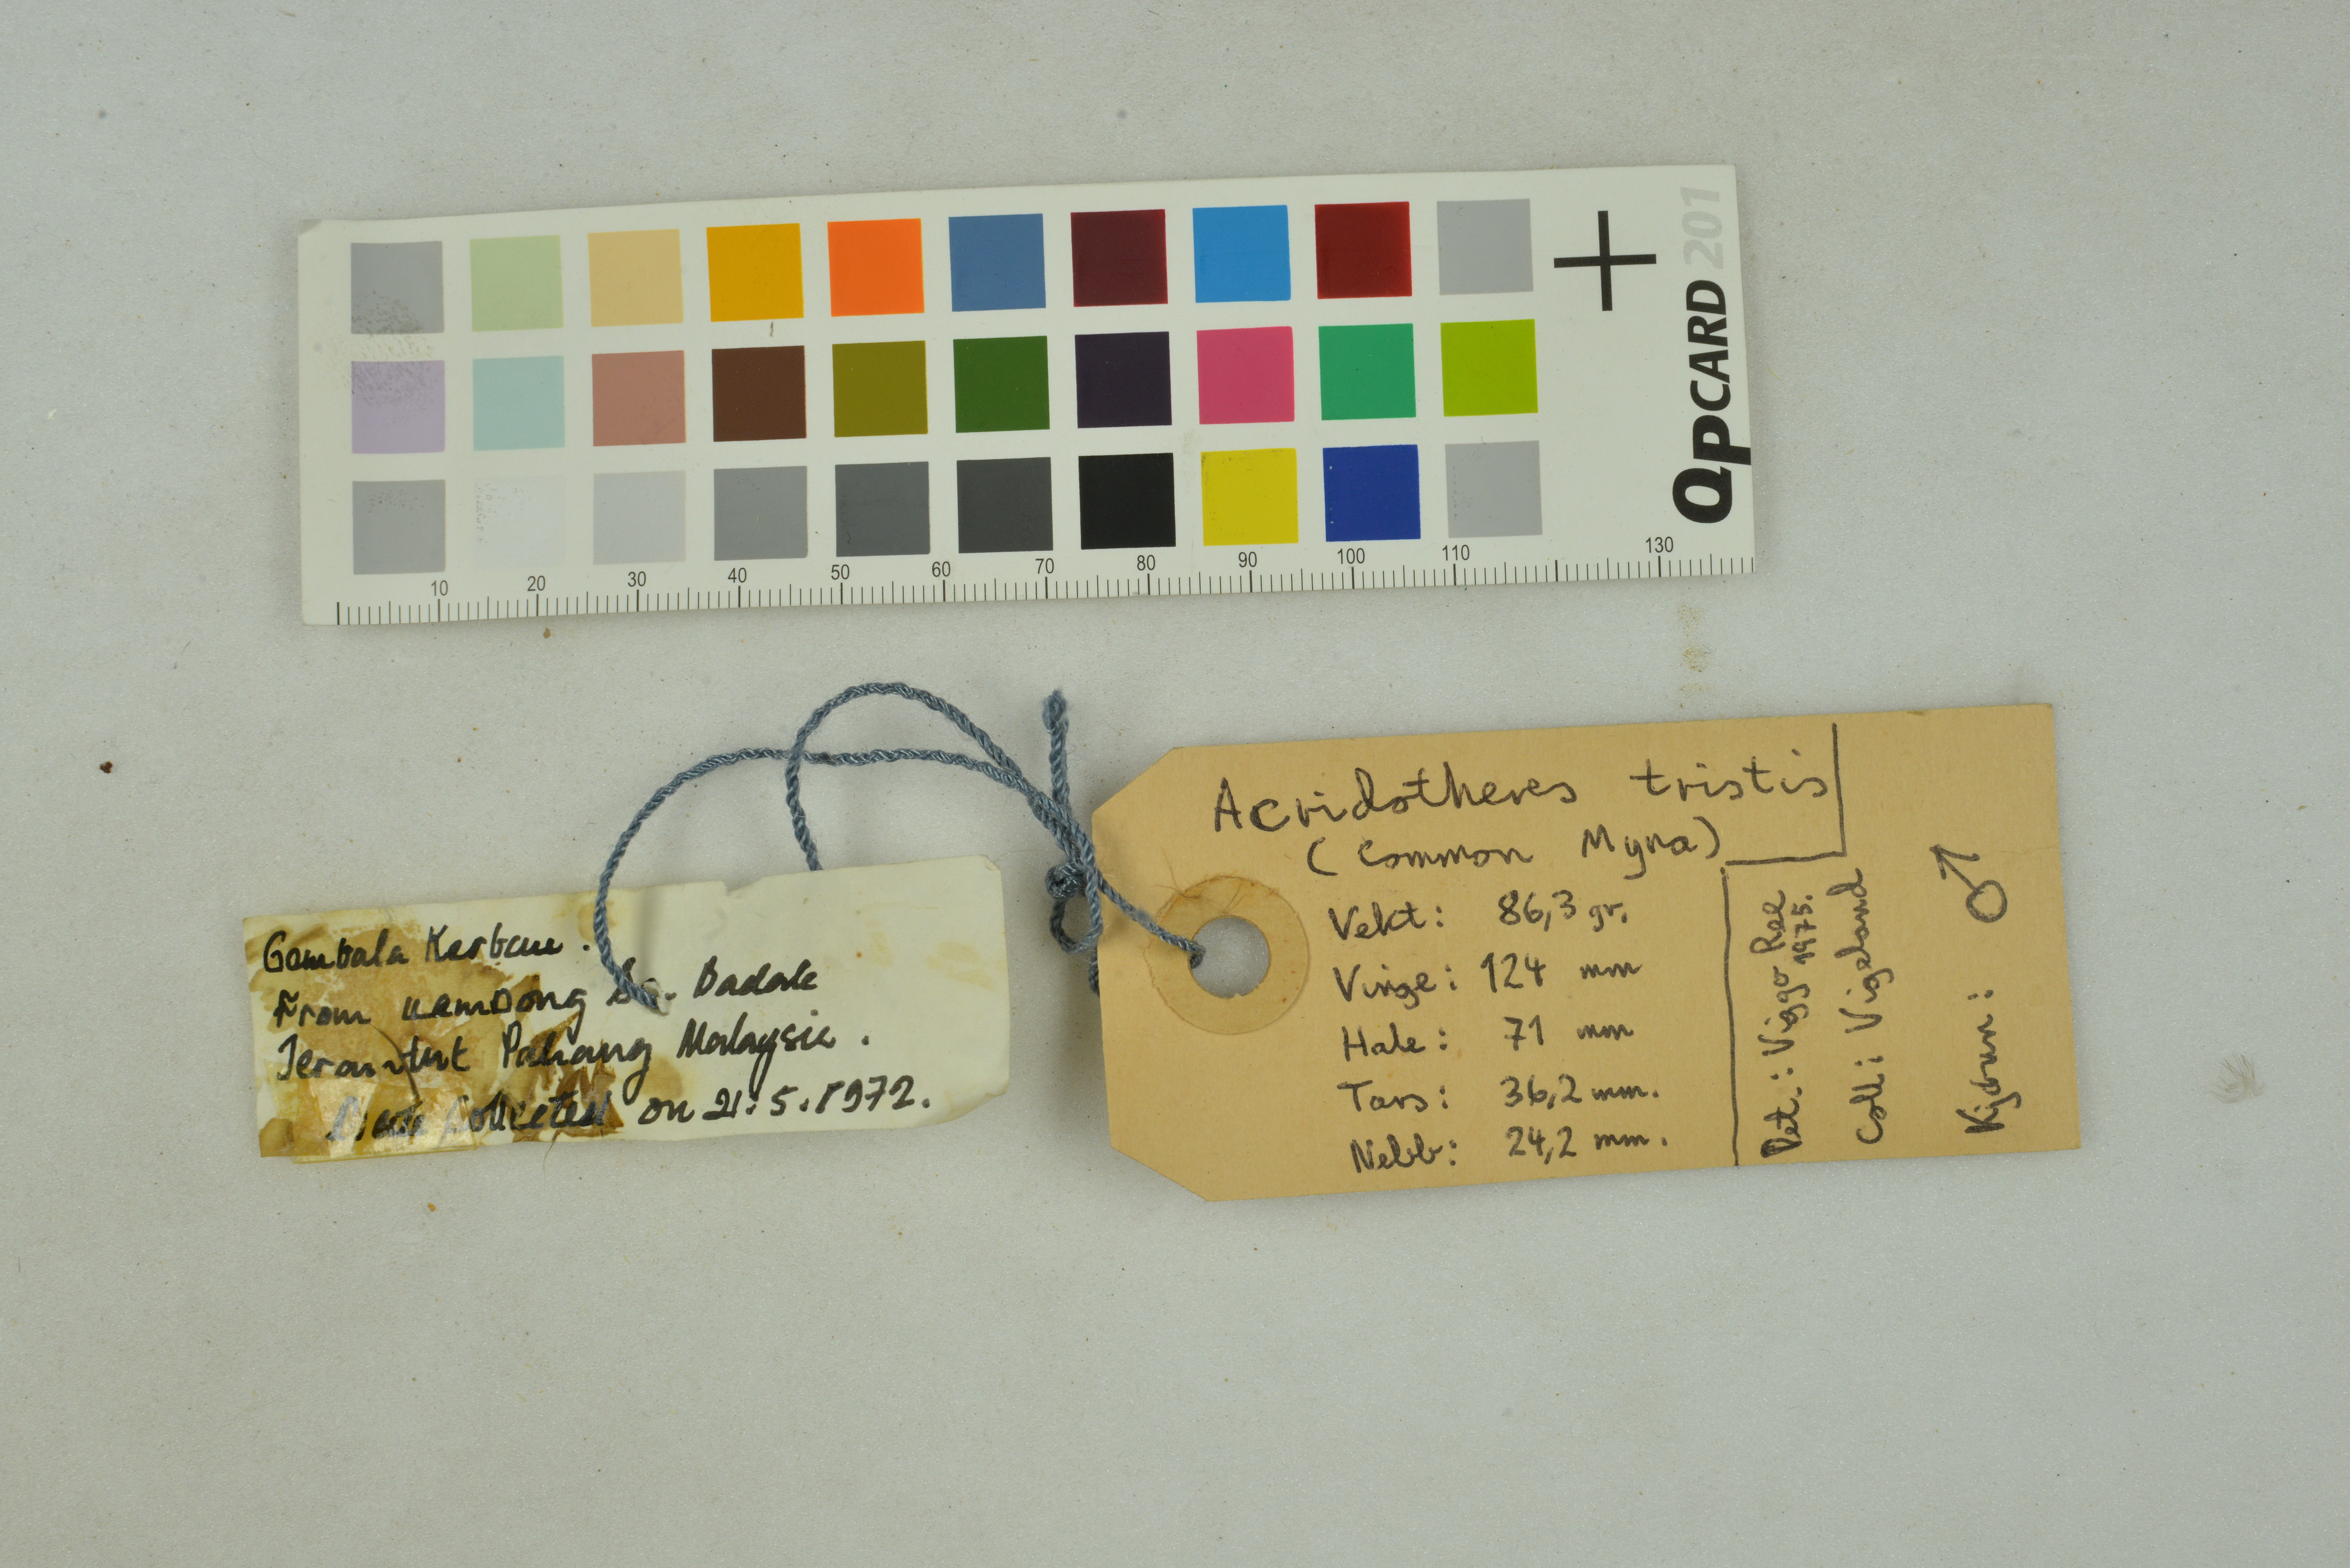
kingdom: Animalia
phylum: Chordata
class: Aves
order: Passeriformes
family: Sturnidae
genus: Acridotheres
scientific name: Acridotheres fuscus
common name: Jungle myna
